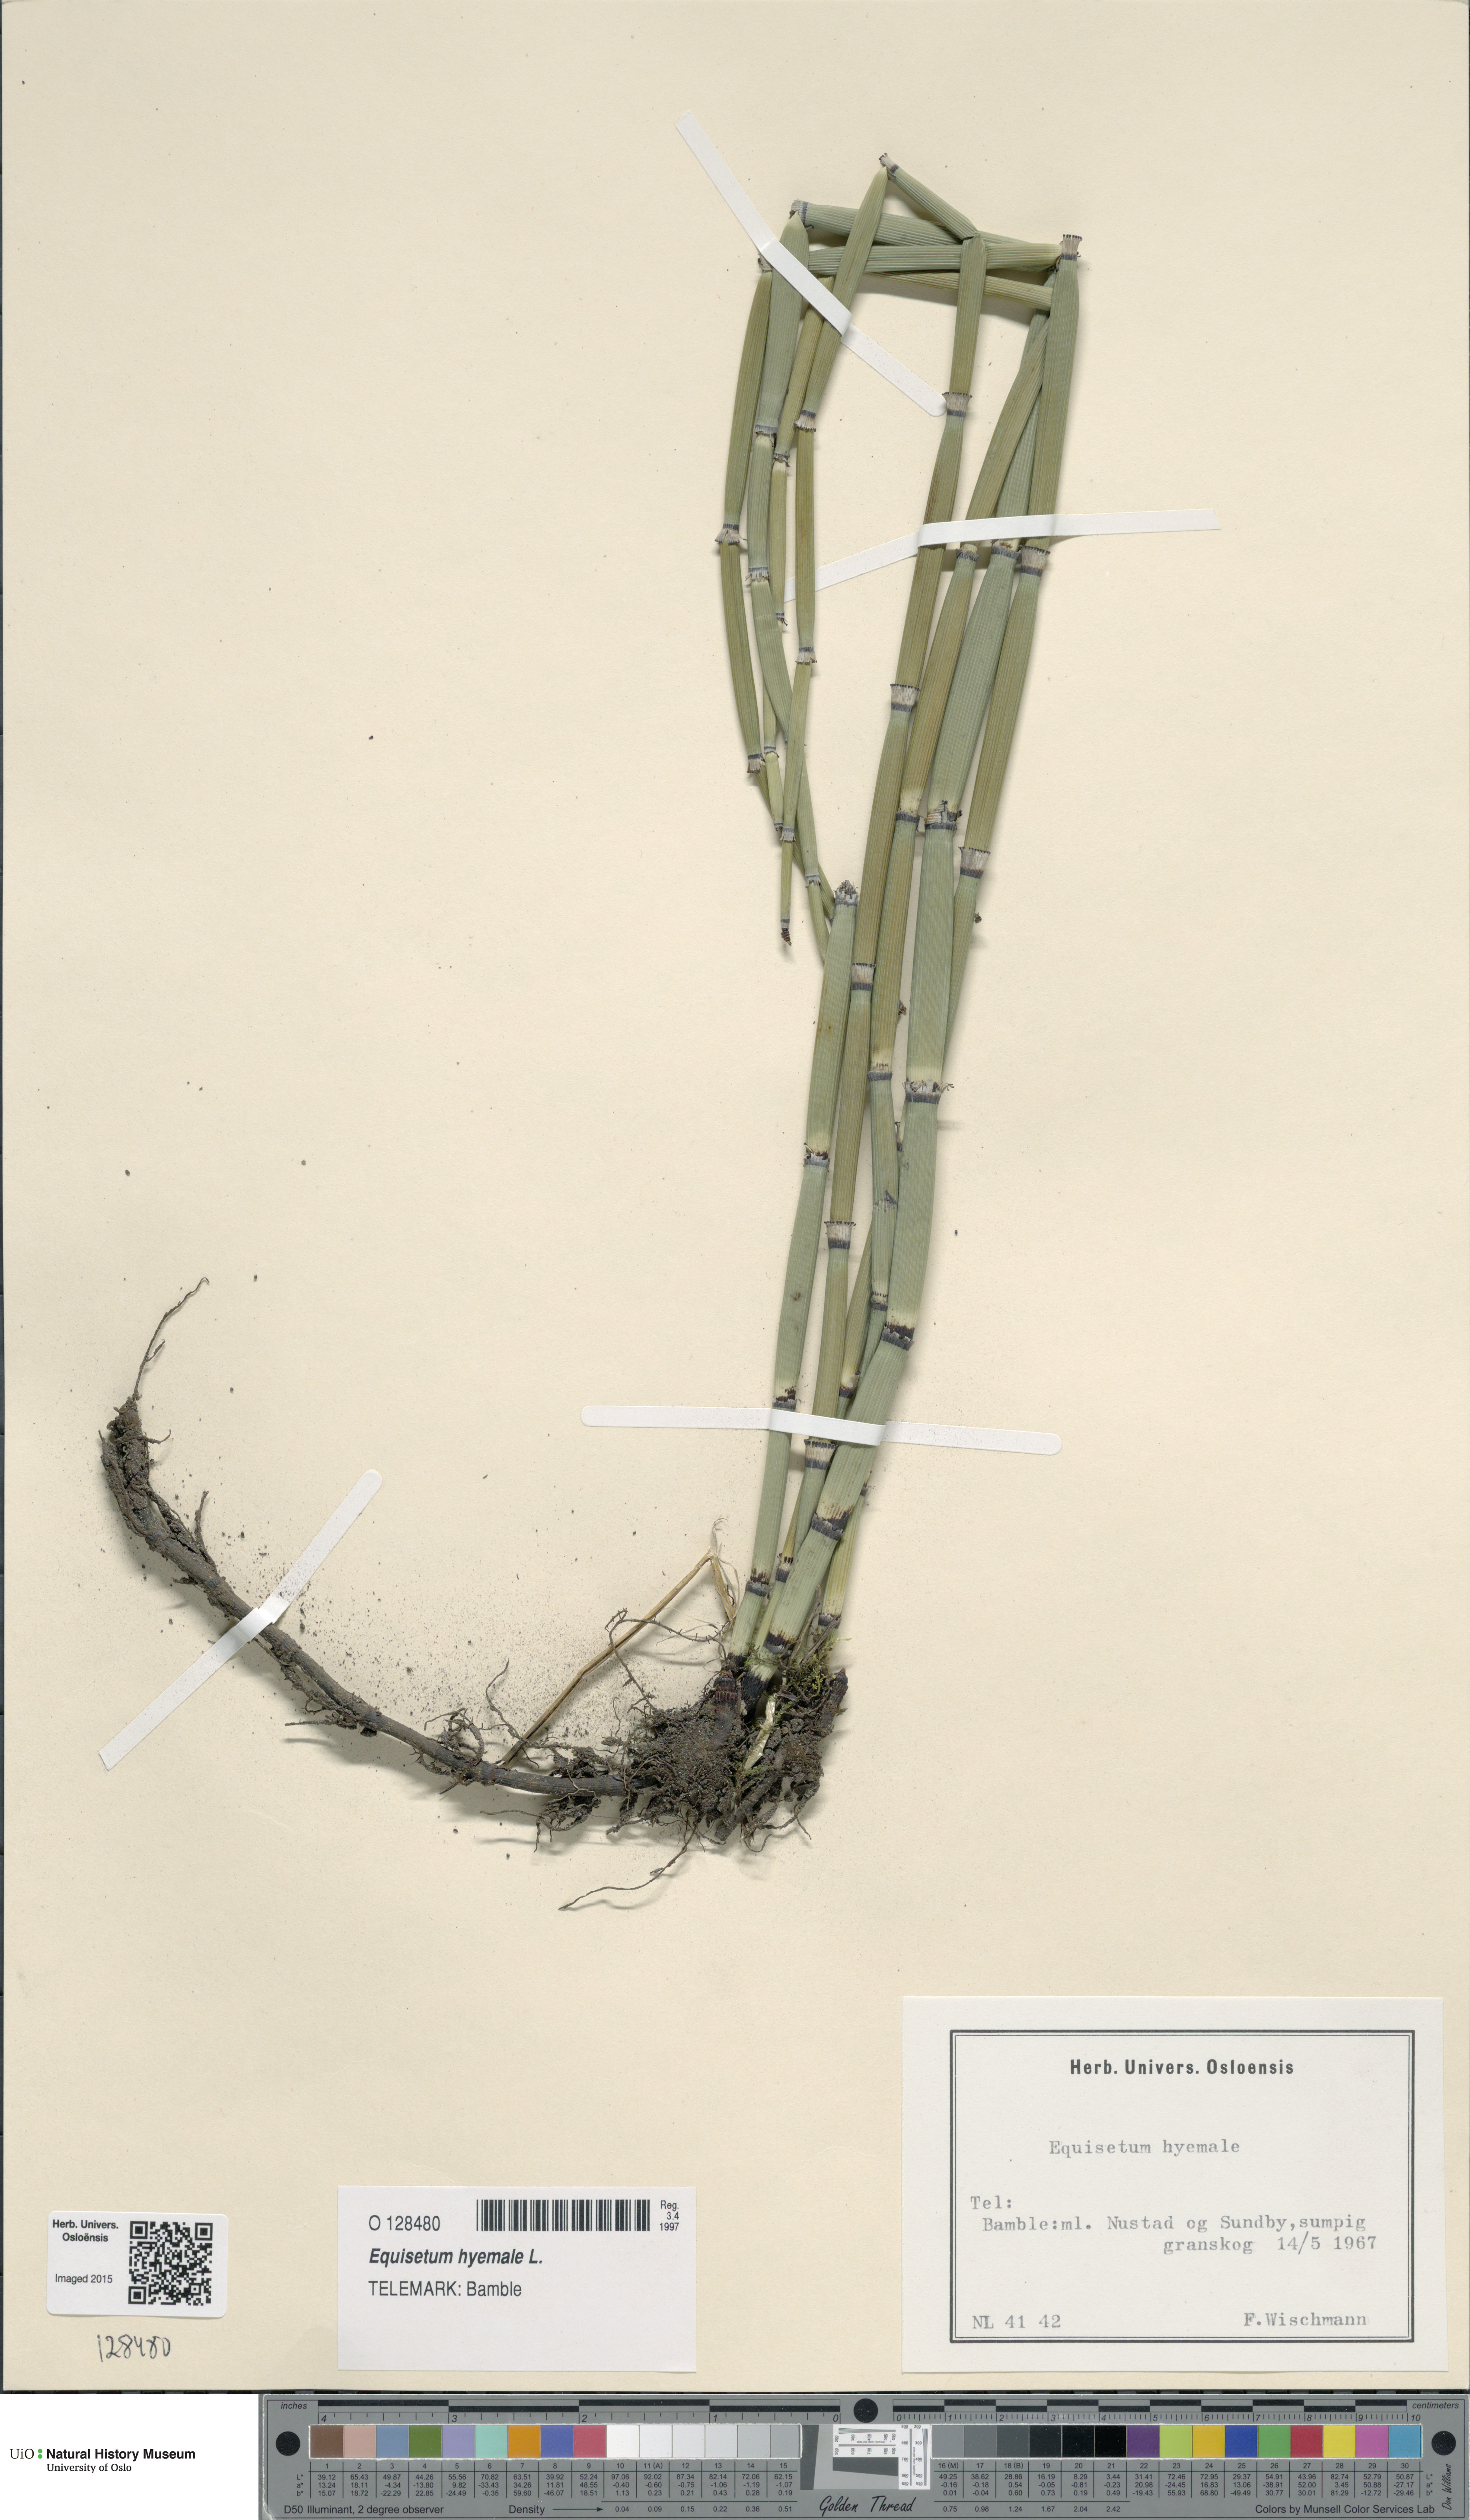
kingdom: Plantae
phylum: Tracheophyta
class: Polypodiopsida
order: Equisetales
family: Equisetaceae
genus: Equisetum
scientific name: Equisetum hyemale
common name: Rough horsetail
